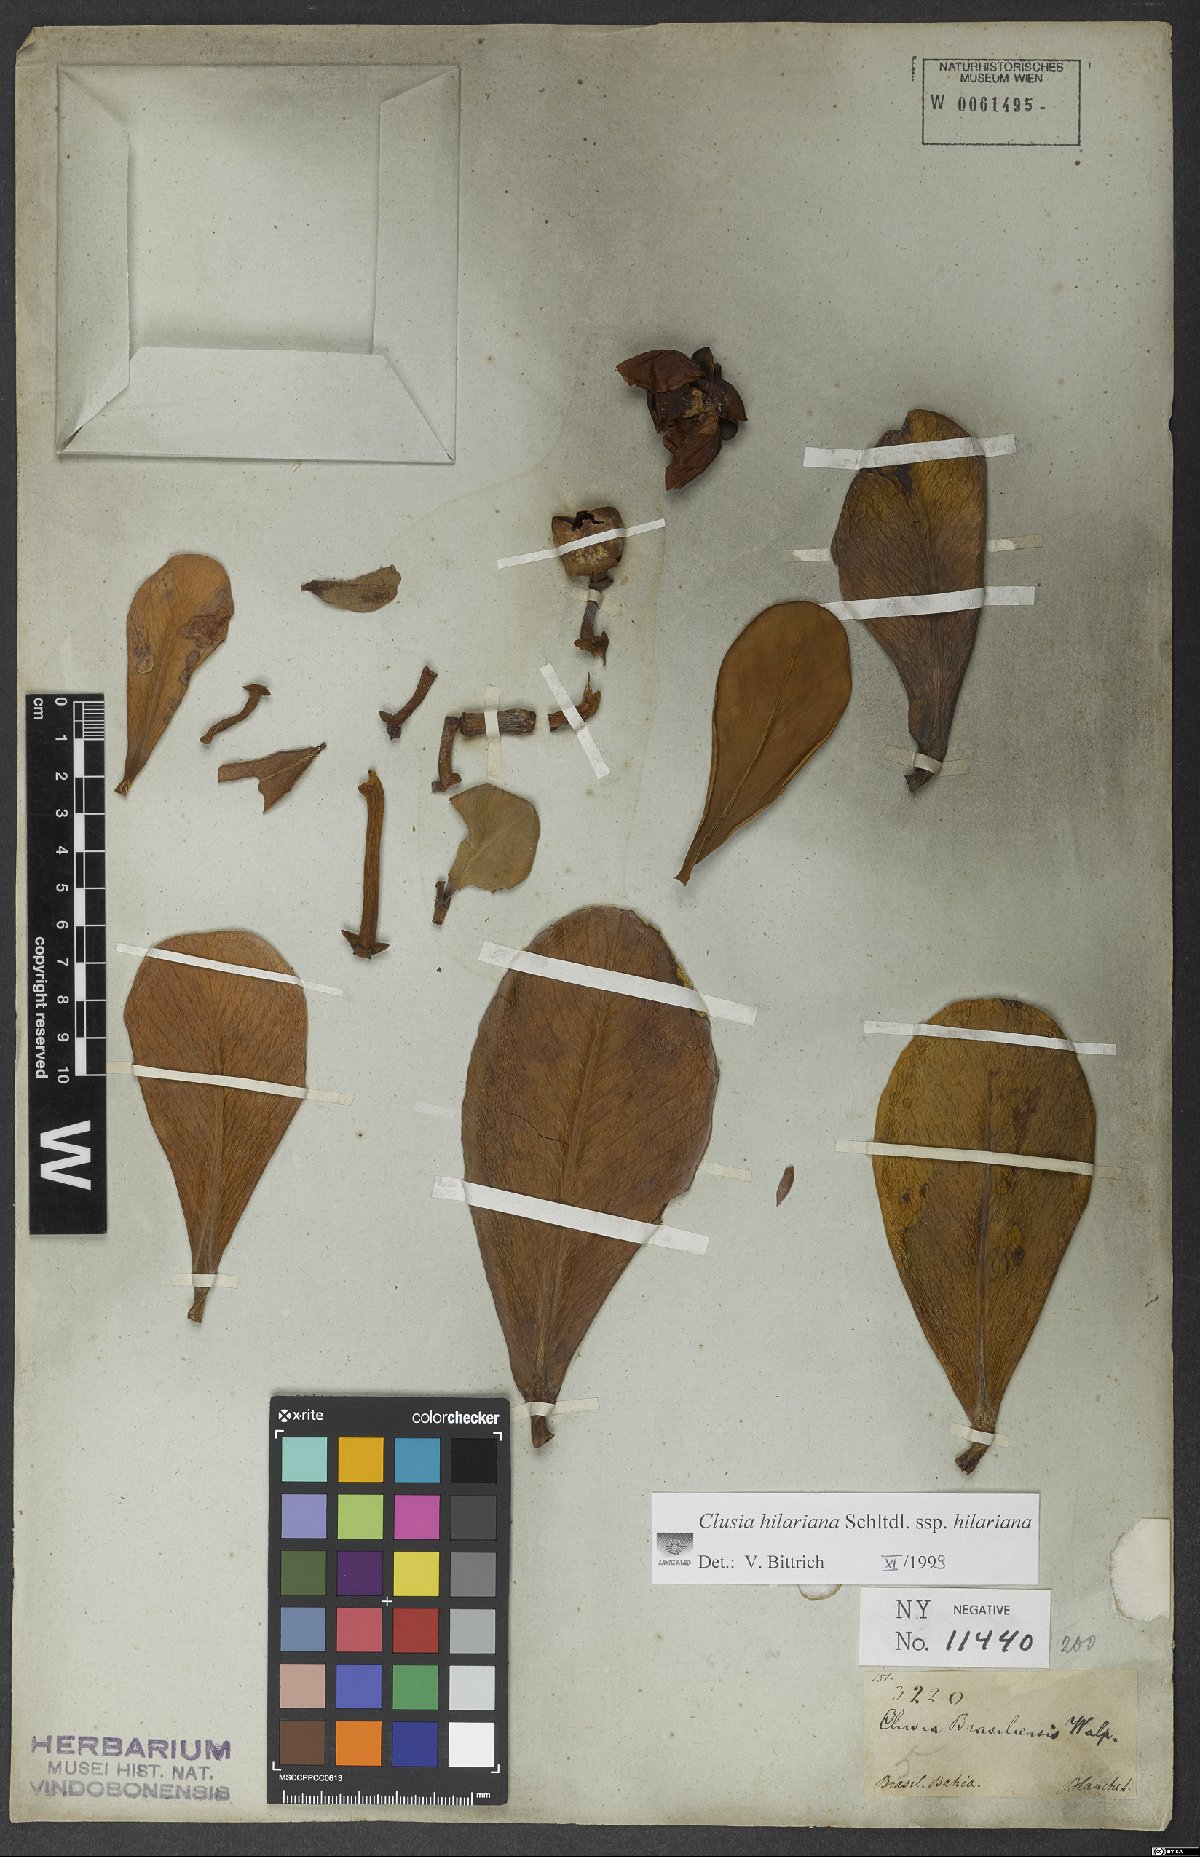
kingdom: Plantae
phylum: Tracheophyta
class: Magnoliopsida
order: Malpighiales
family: Clusiaceae
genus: Clusia
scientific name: Clusia hilariana
